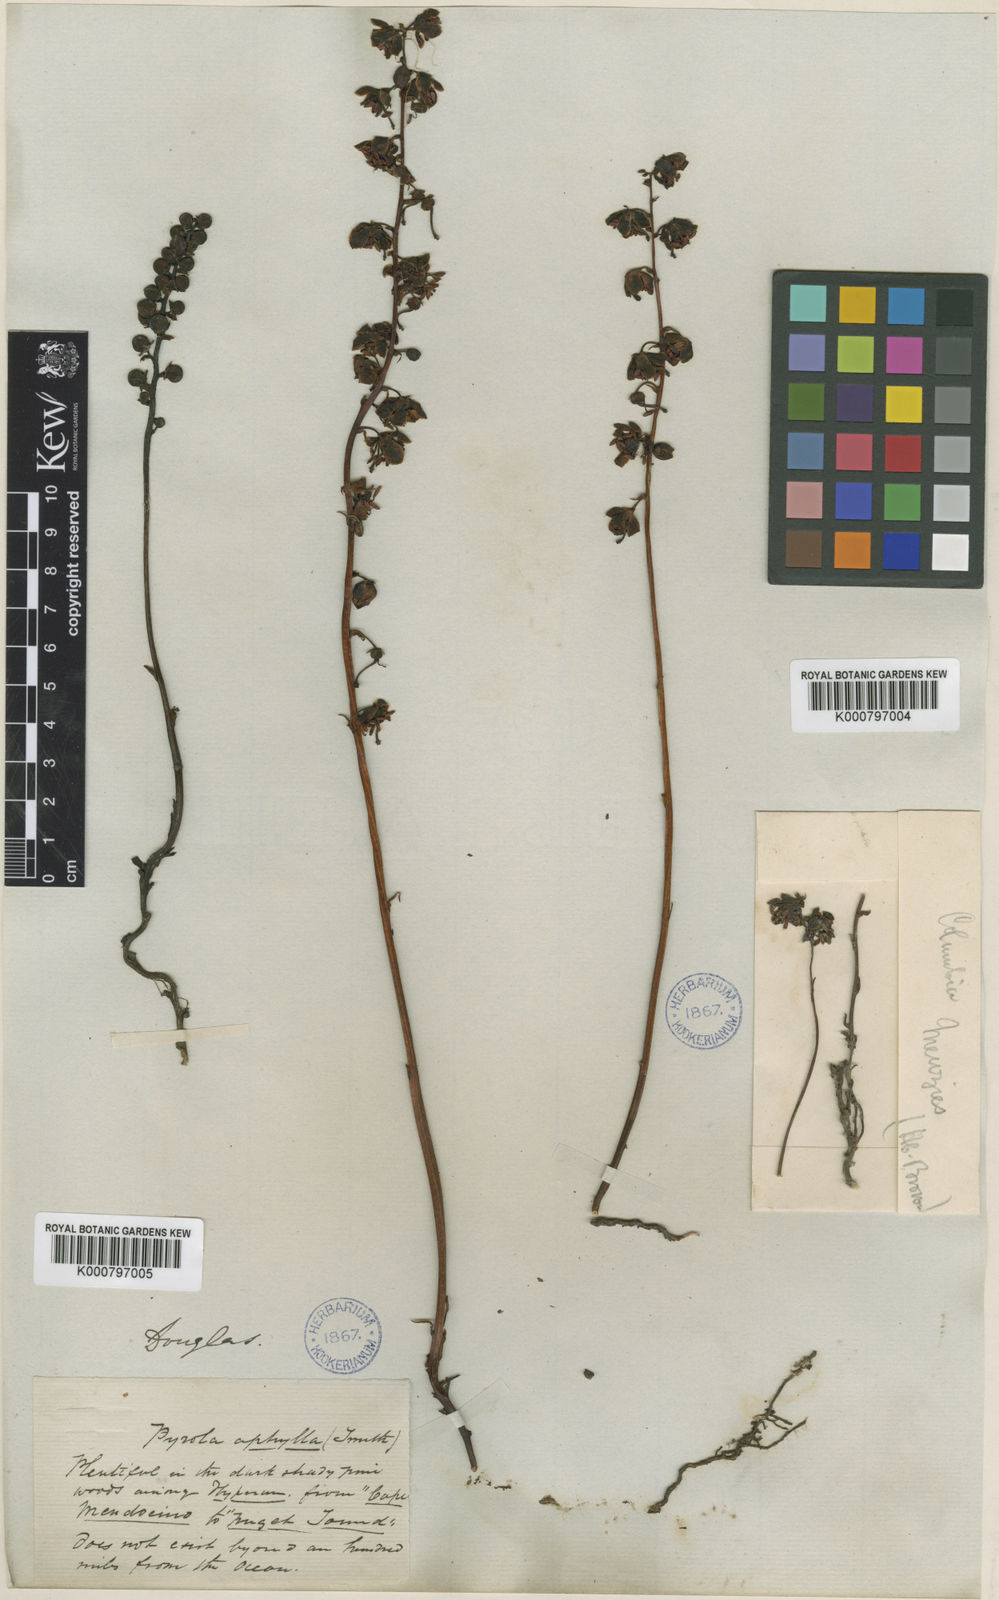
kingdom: Plantae
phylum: Tracheophyta
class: Magnoliopsida
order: Ericales
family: Ericaceae
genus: Pyrola
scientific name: Pyrola aphylla
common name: Leafless wintergreen
